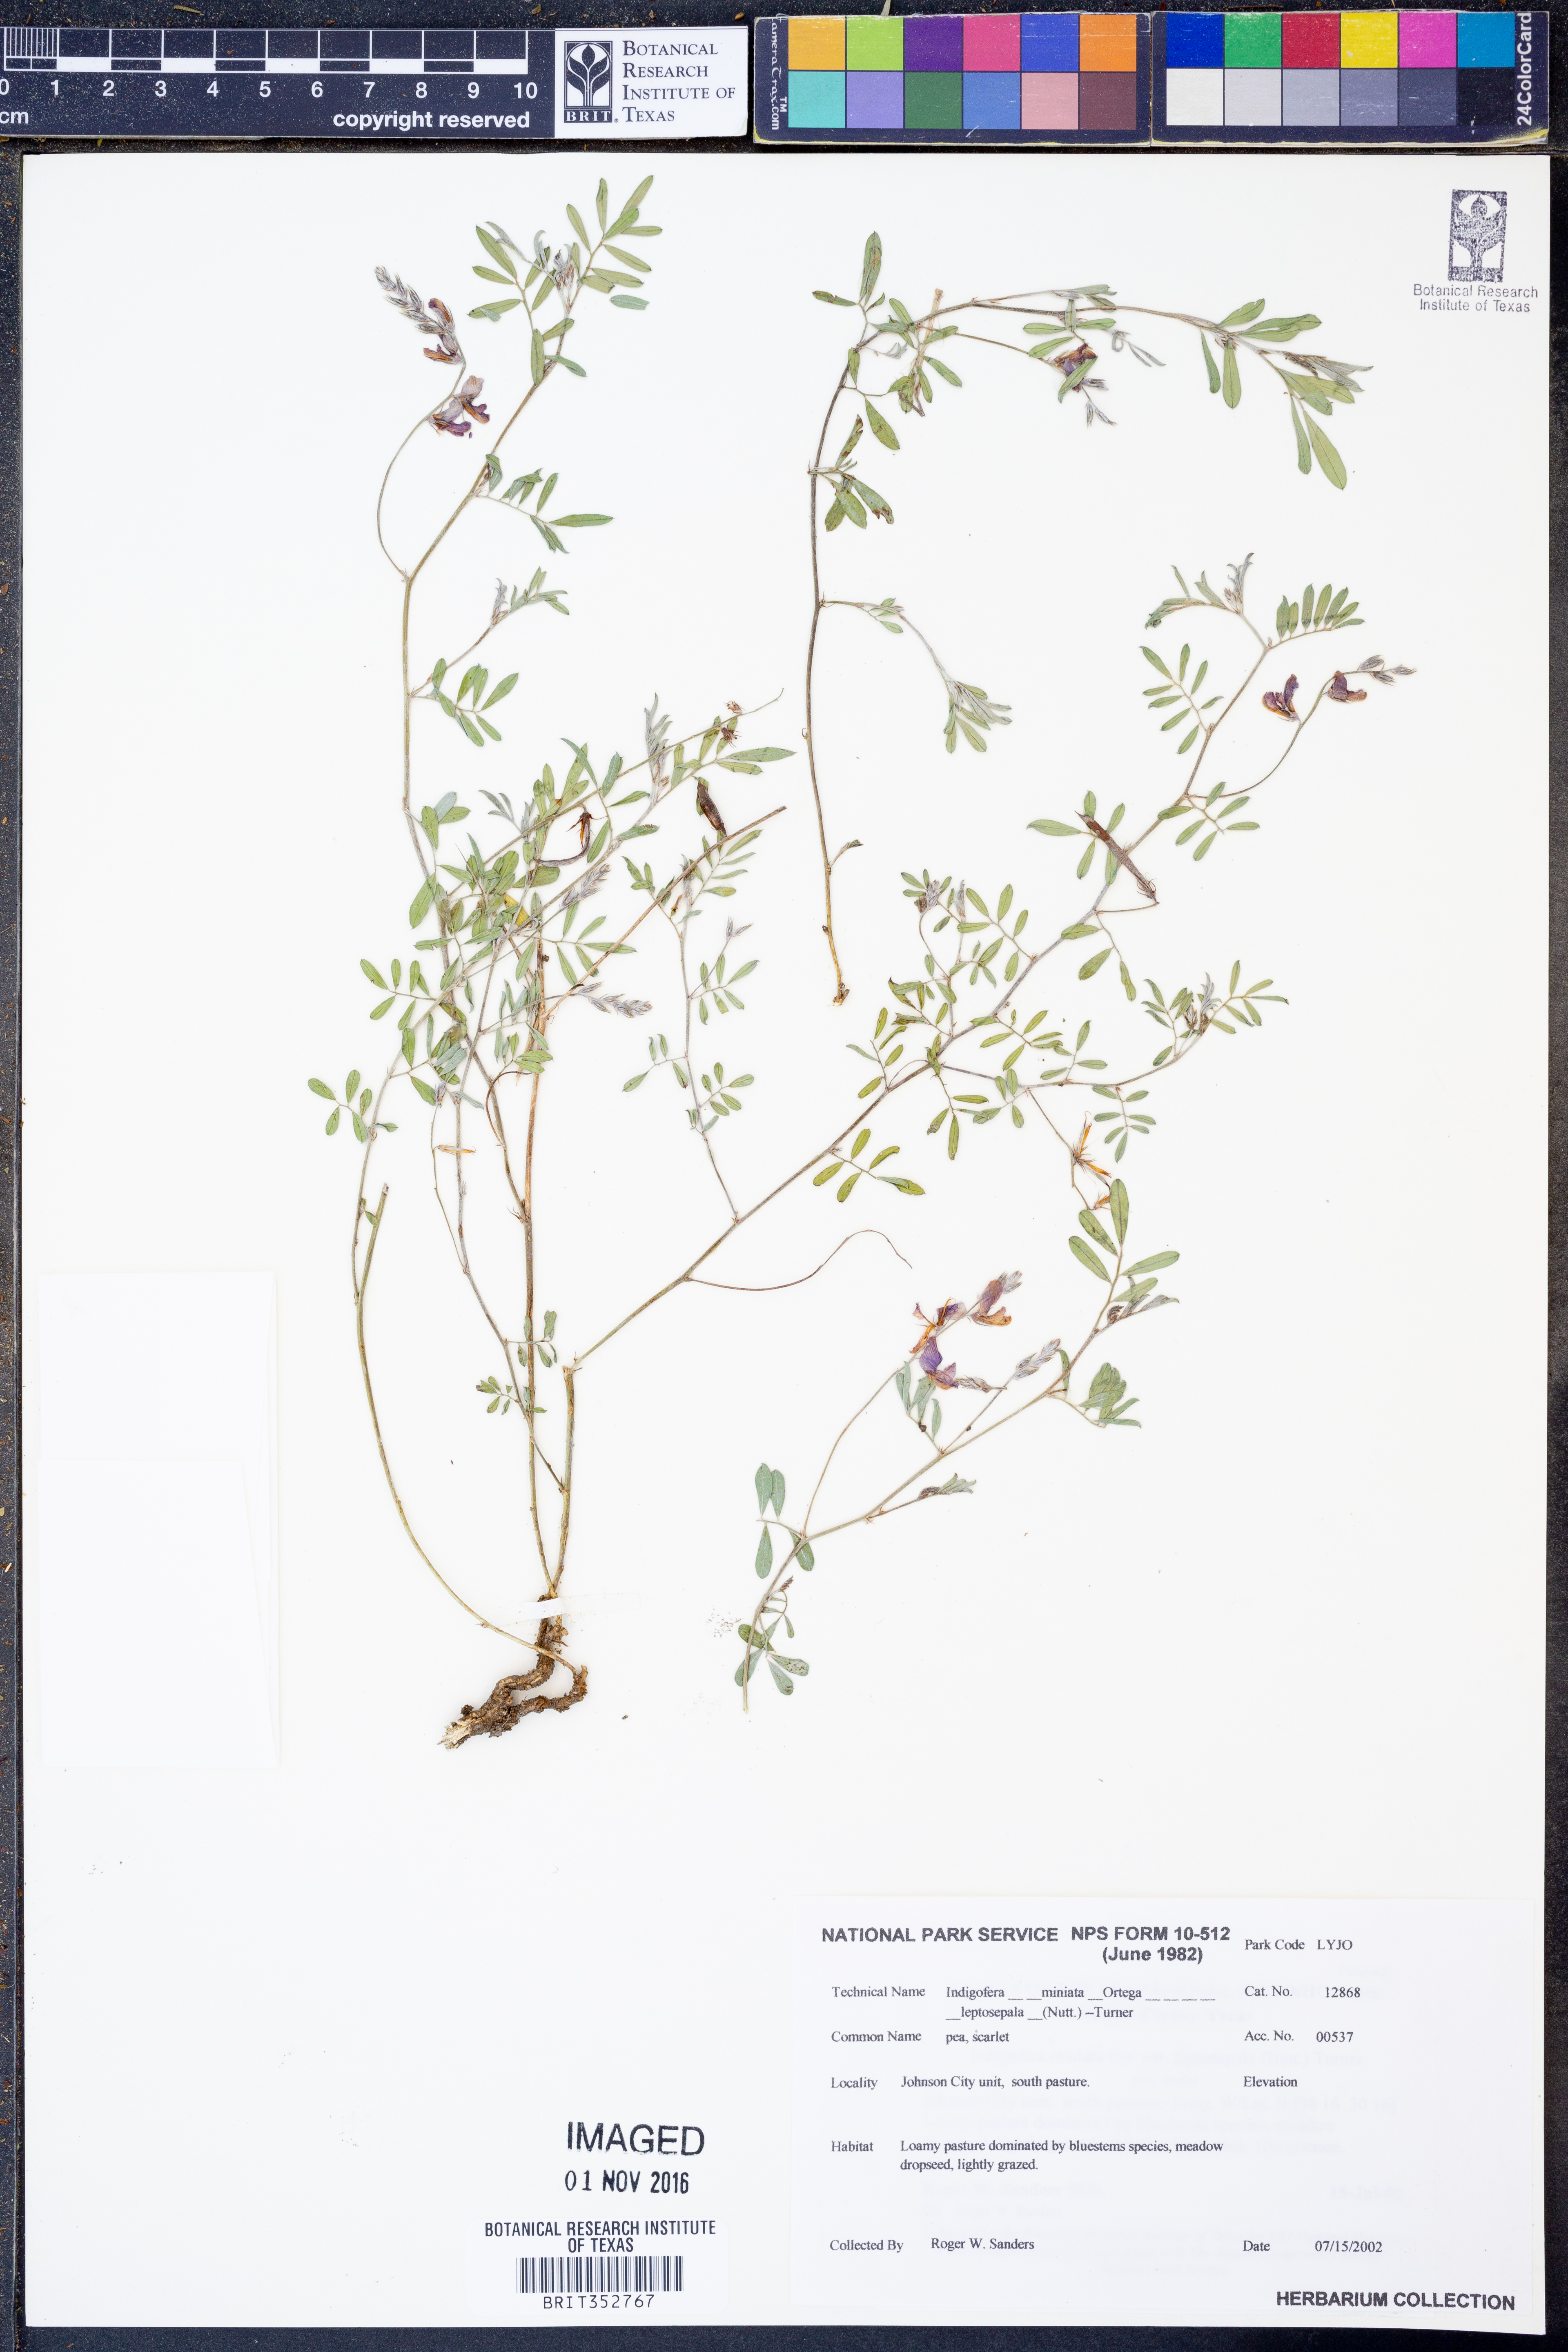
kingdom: Plantae
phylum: Tracheophyta
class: Magnoliopsida
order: Fabales
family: Fabaceae
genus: Indigofera
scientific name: Indigofera miniata
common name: Coast indigo
